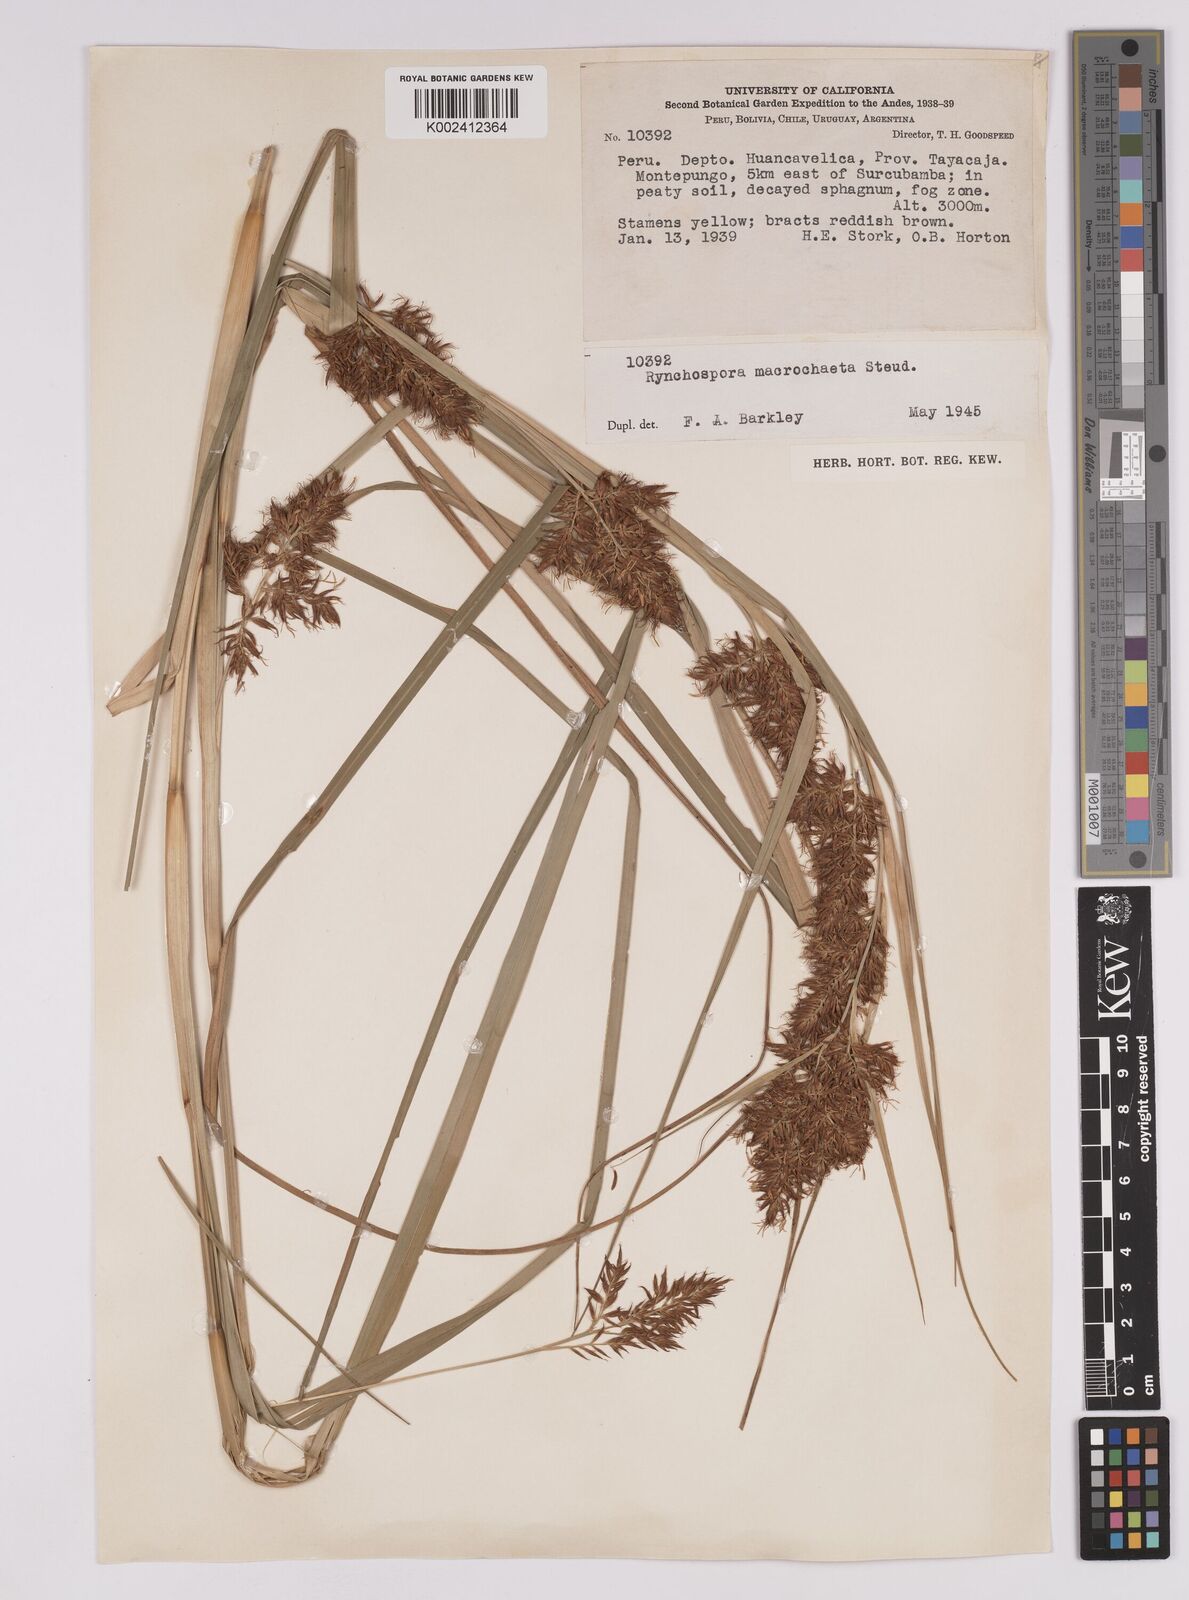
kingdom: Plantae
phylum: Tracheophyta
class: Liliopsida
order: Poales
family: Cyperaceae
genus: Rhynchospora
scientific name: Rhynchospora macrochaeta
